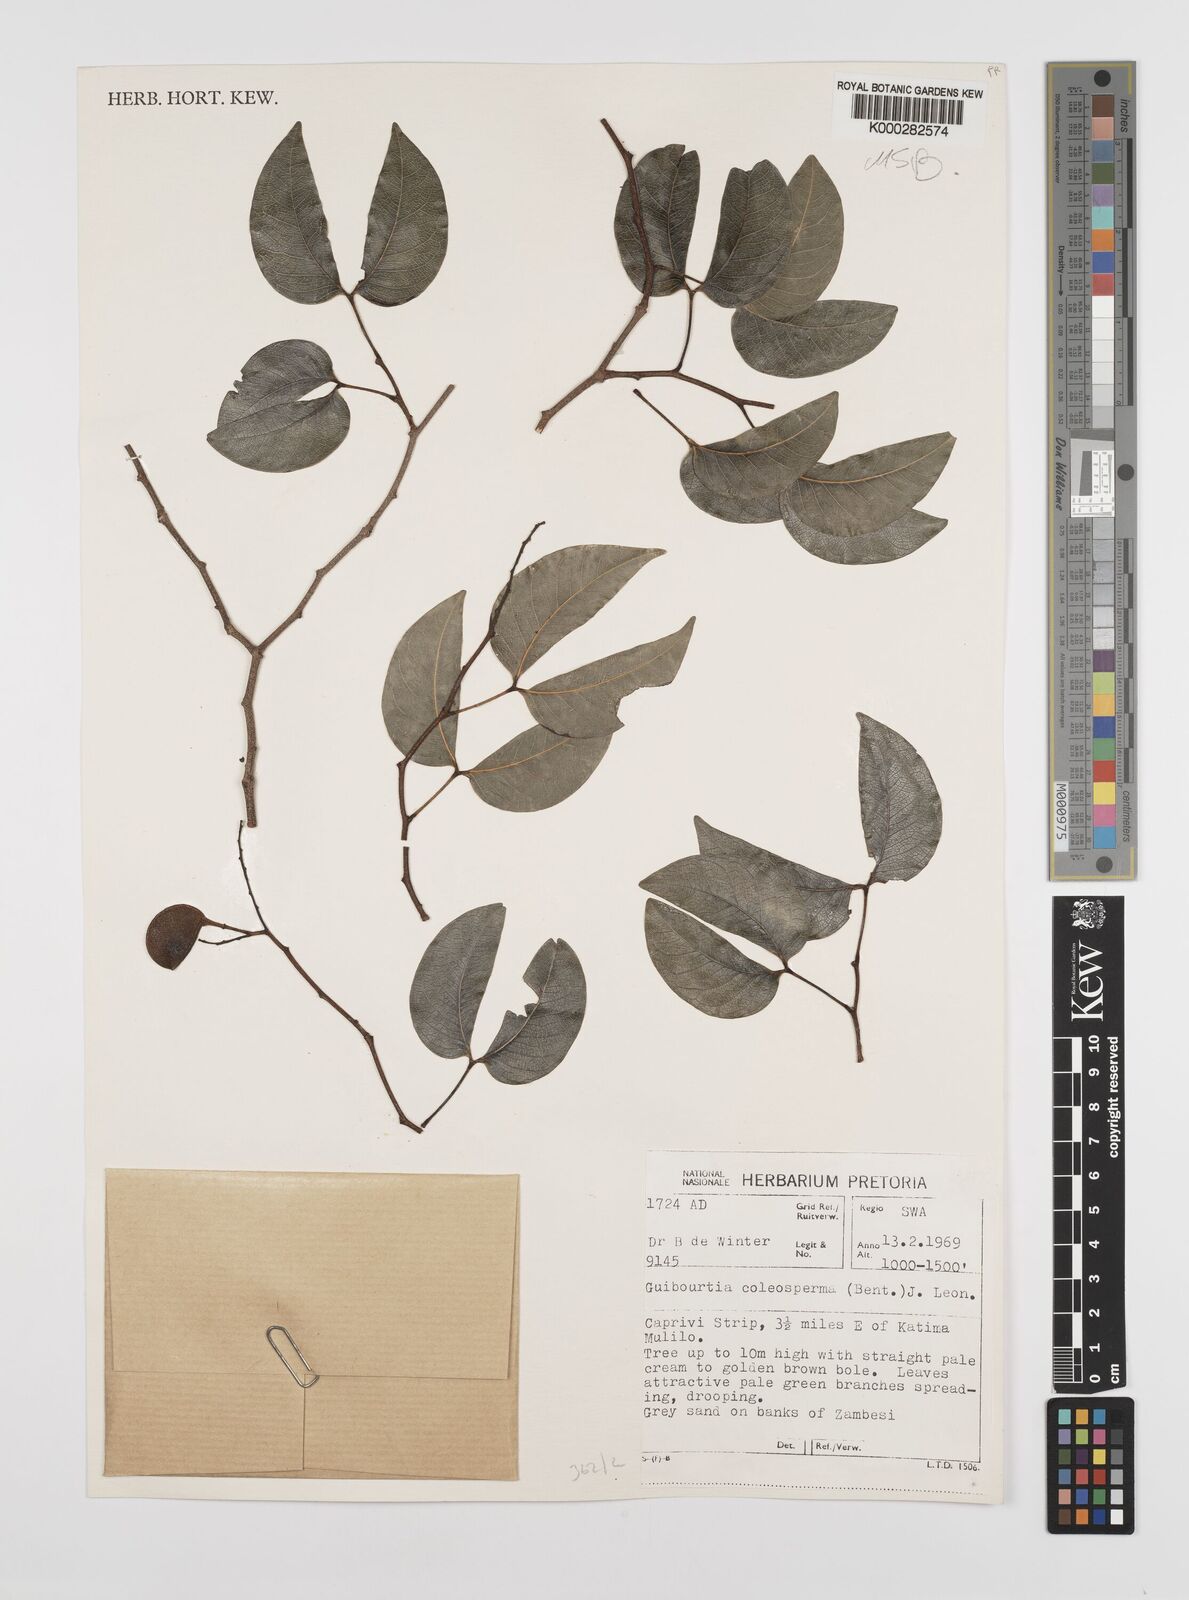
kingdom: Plantae
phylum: Tracheophyta
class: Magnoliopsida
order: Fabales
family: Fabaceae
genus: Guibourtia
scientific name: Guibourtia coleosperma
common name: African rosewoood
